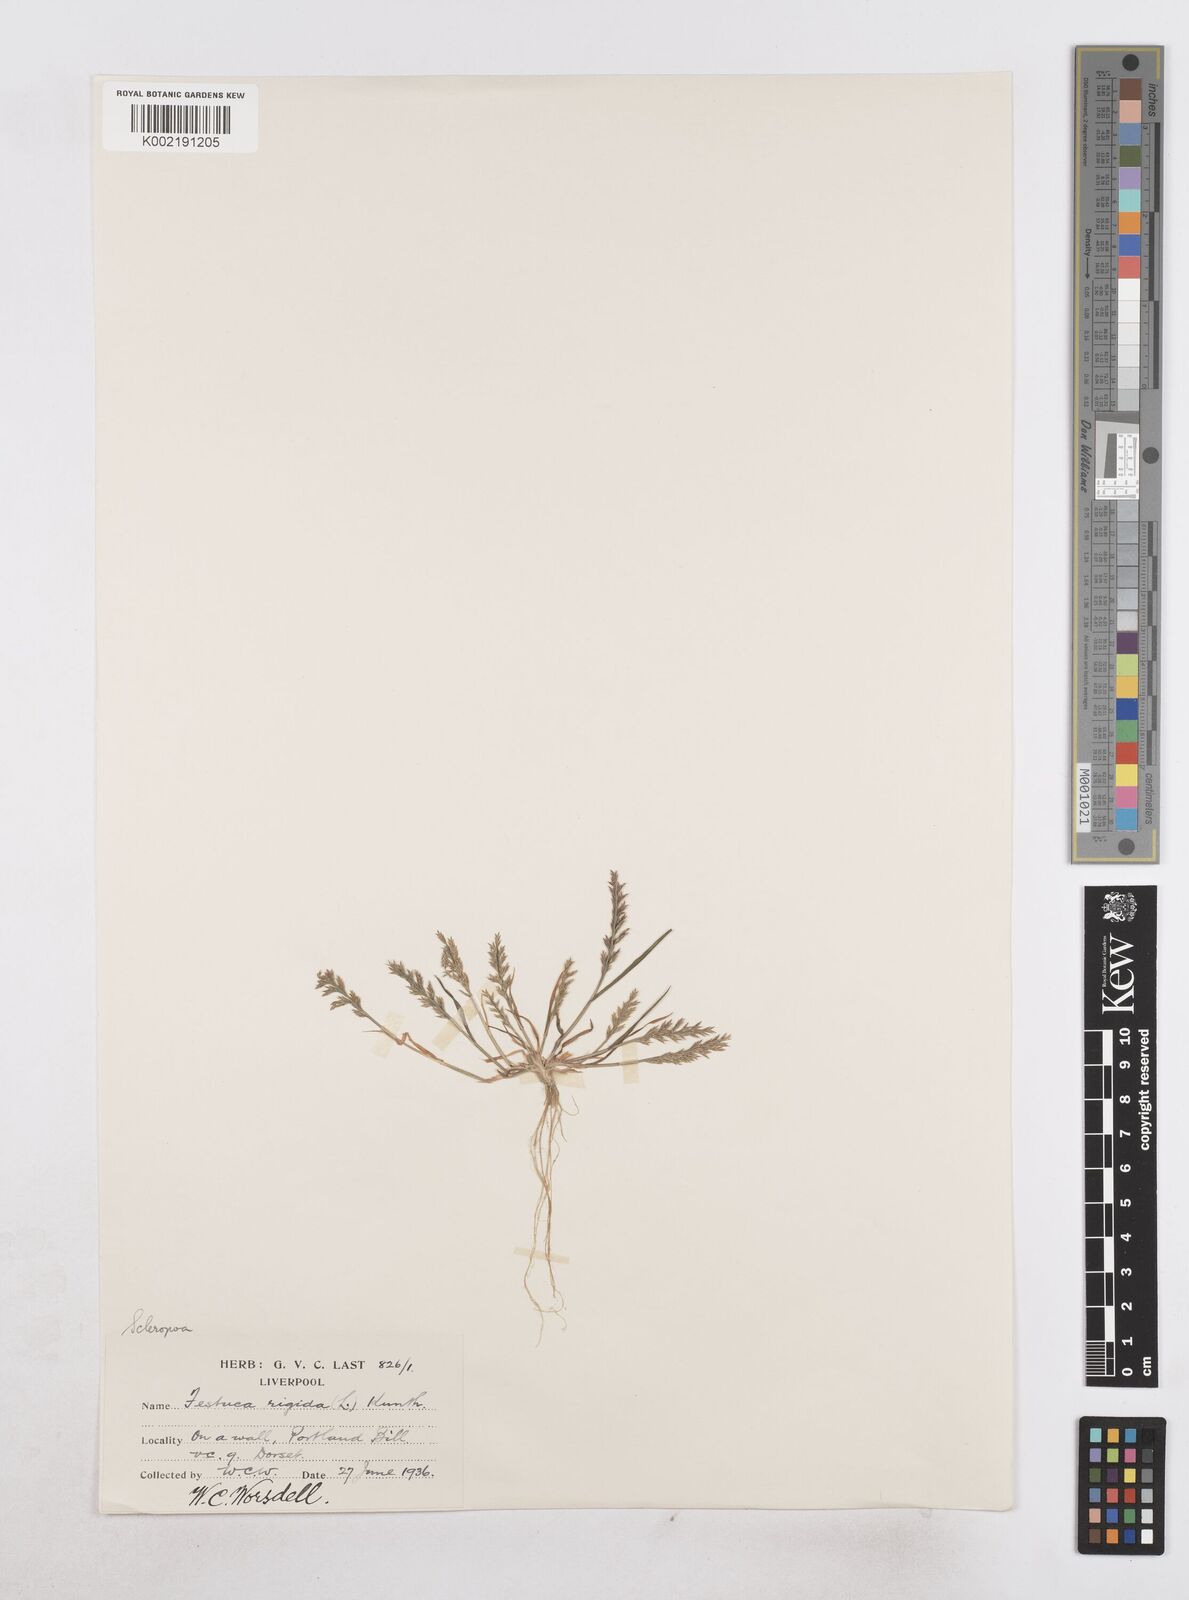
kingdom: Plantae
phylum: Tracheophyta
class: Liliopsida
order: Poales
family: Poaceae
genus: Catapodium
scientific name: Catapodium rigidum
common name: Fern-grass
